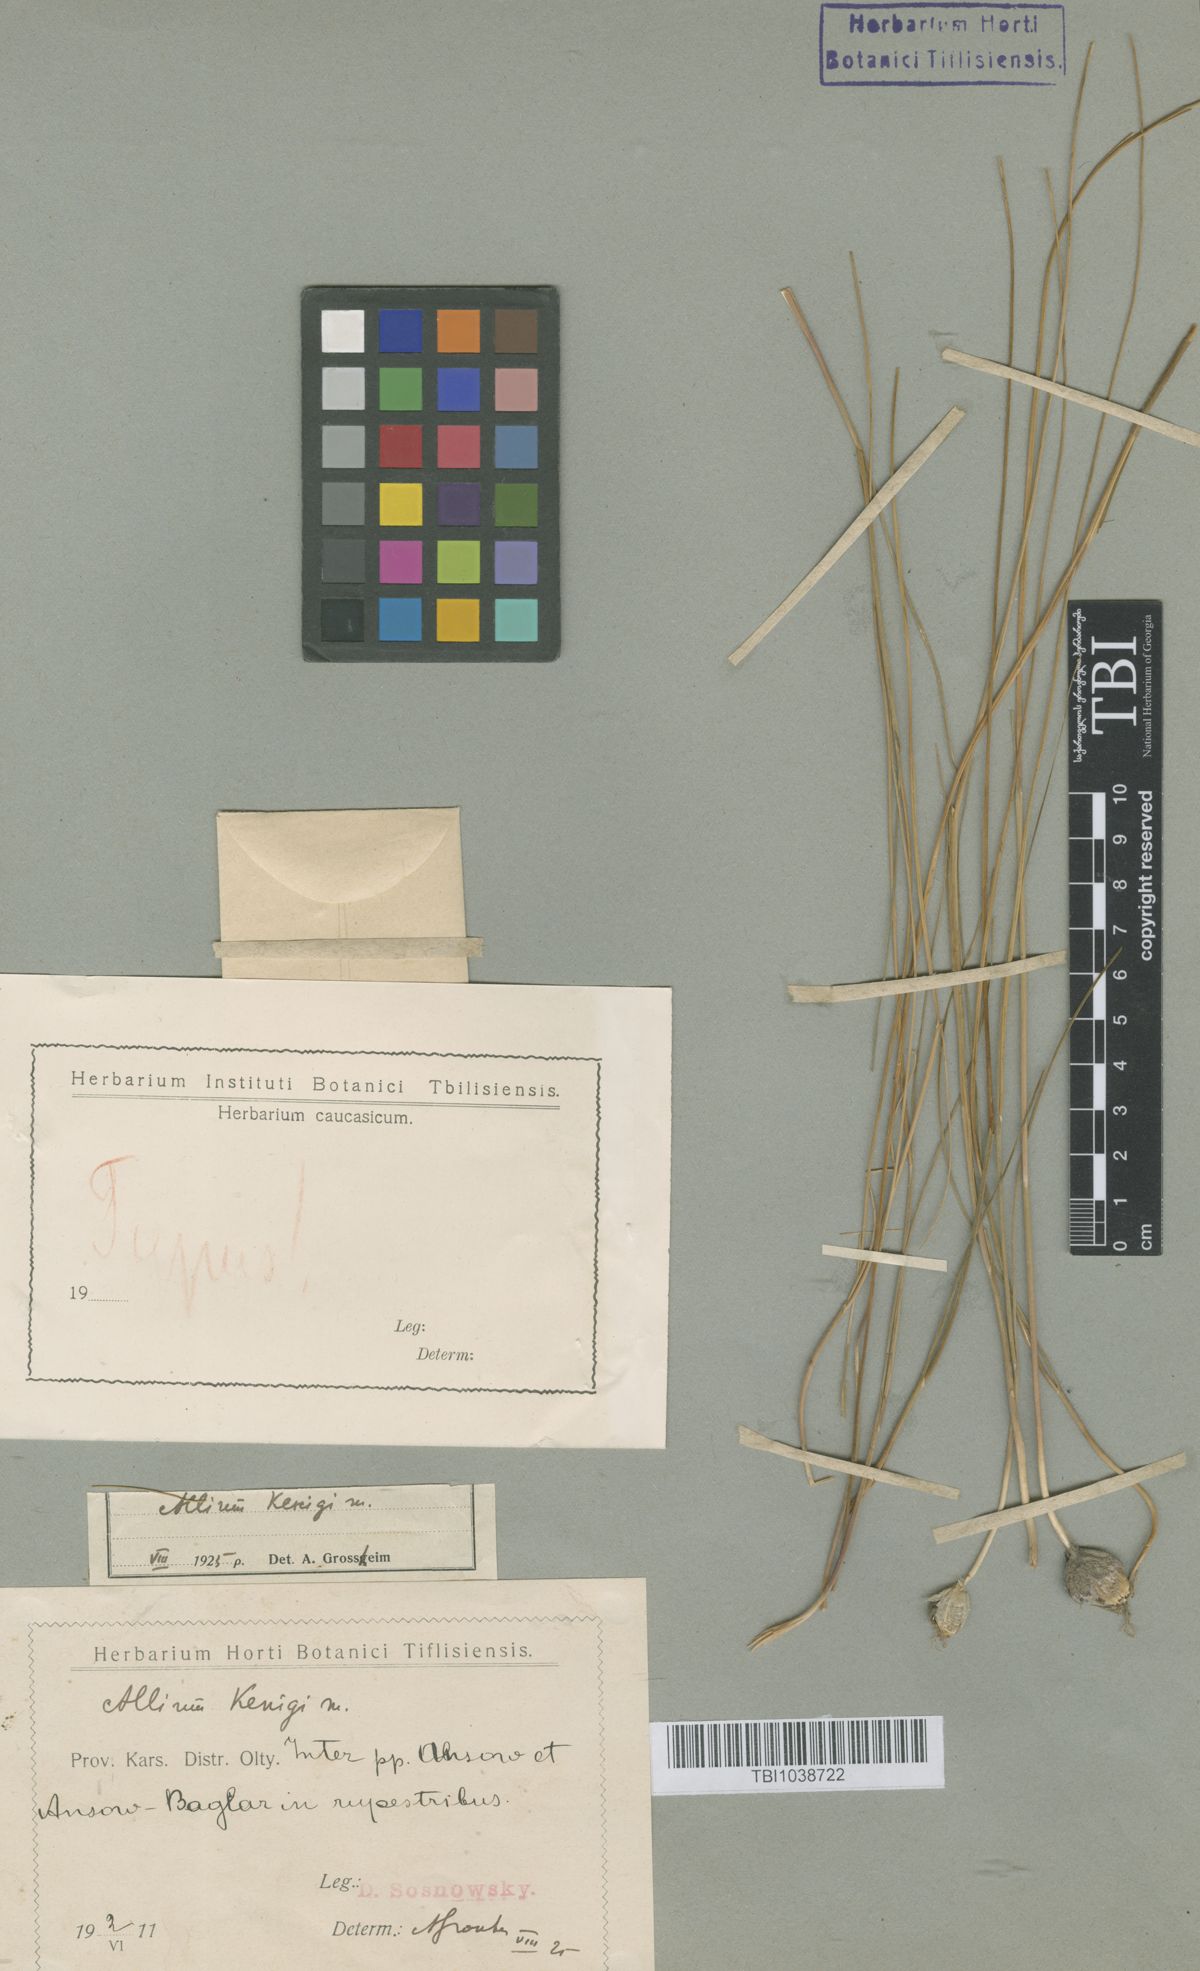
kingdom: Plantae
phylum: Tracheophyta
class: Liliopsida
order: Asparagales
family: Amaryllidaceae
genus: Allium
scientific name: Allium koenigianum
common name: Koenig's onion
